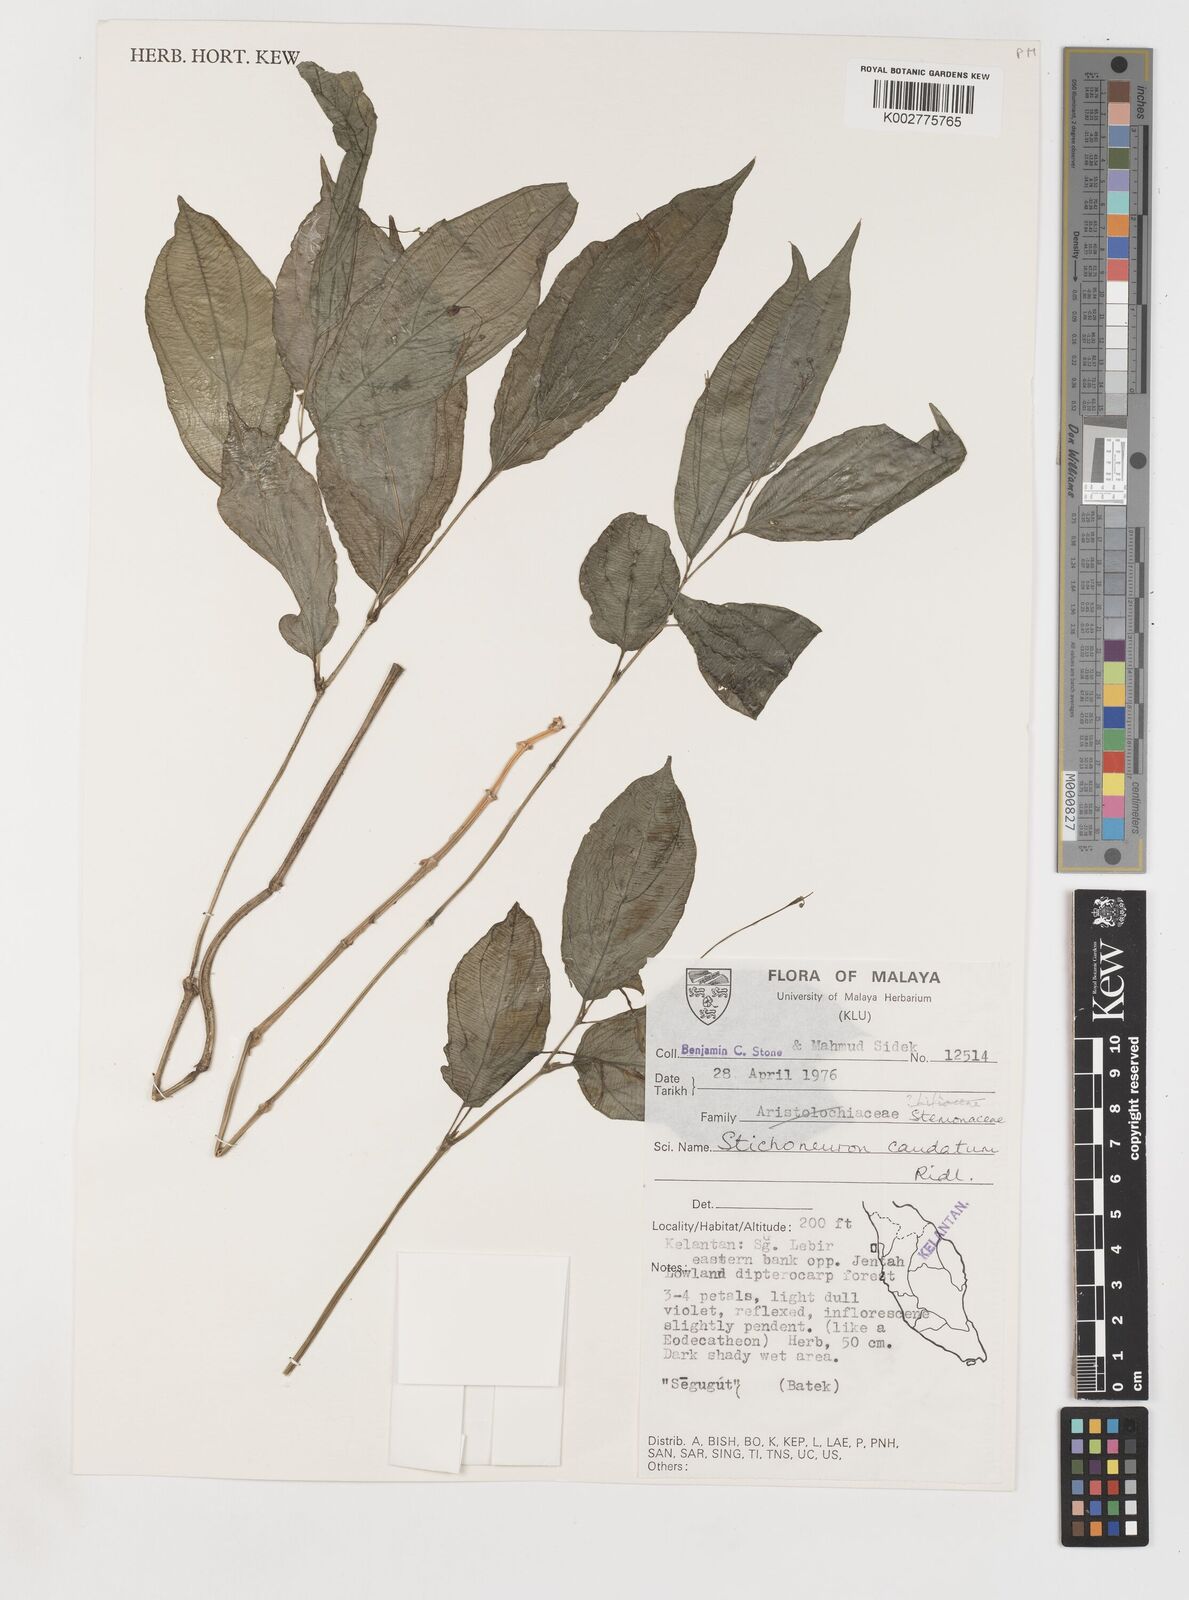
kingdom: Plantae
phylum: Tracheophyta
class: Liliopsida
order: Pandanales
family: Stemonaceae
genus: Stichoneuron
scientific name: Stichoneuron caudatum
